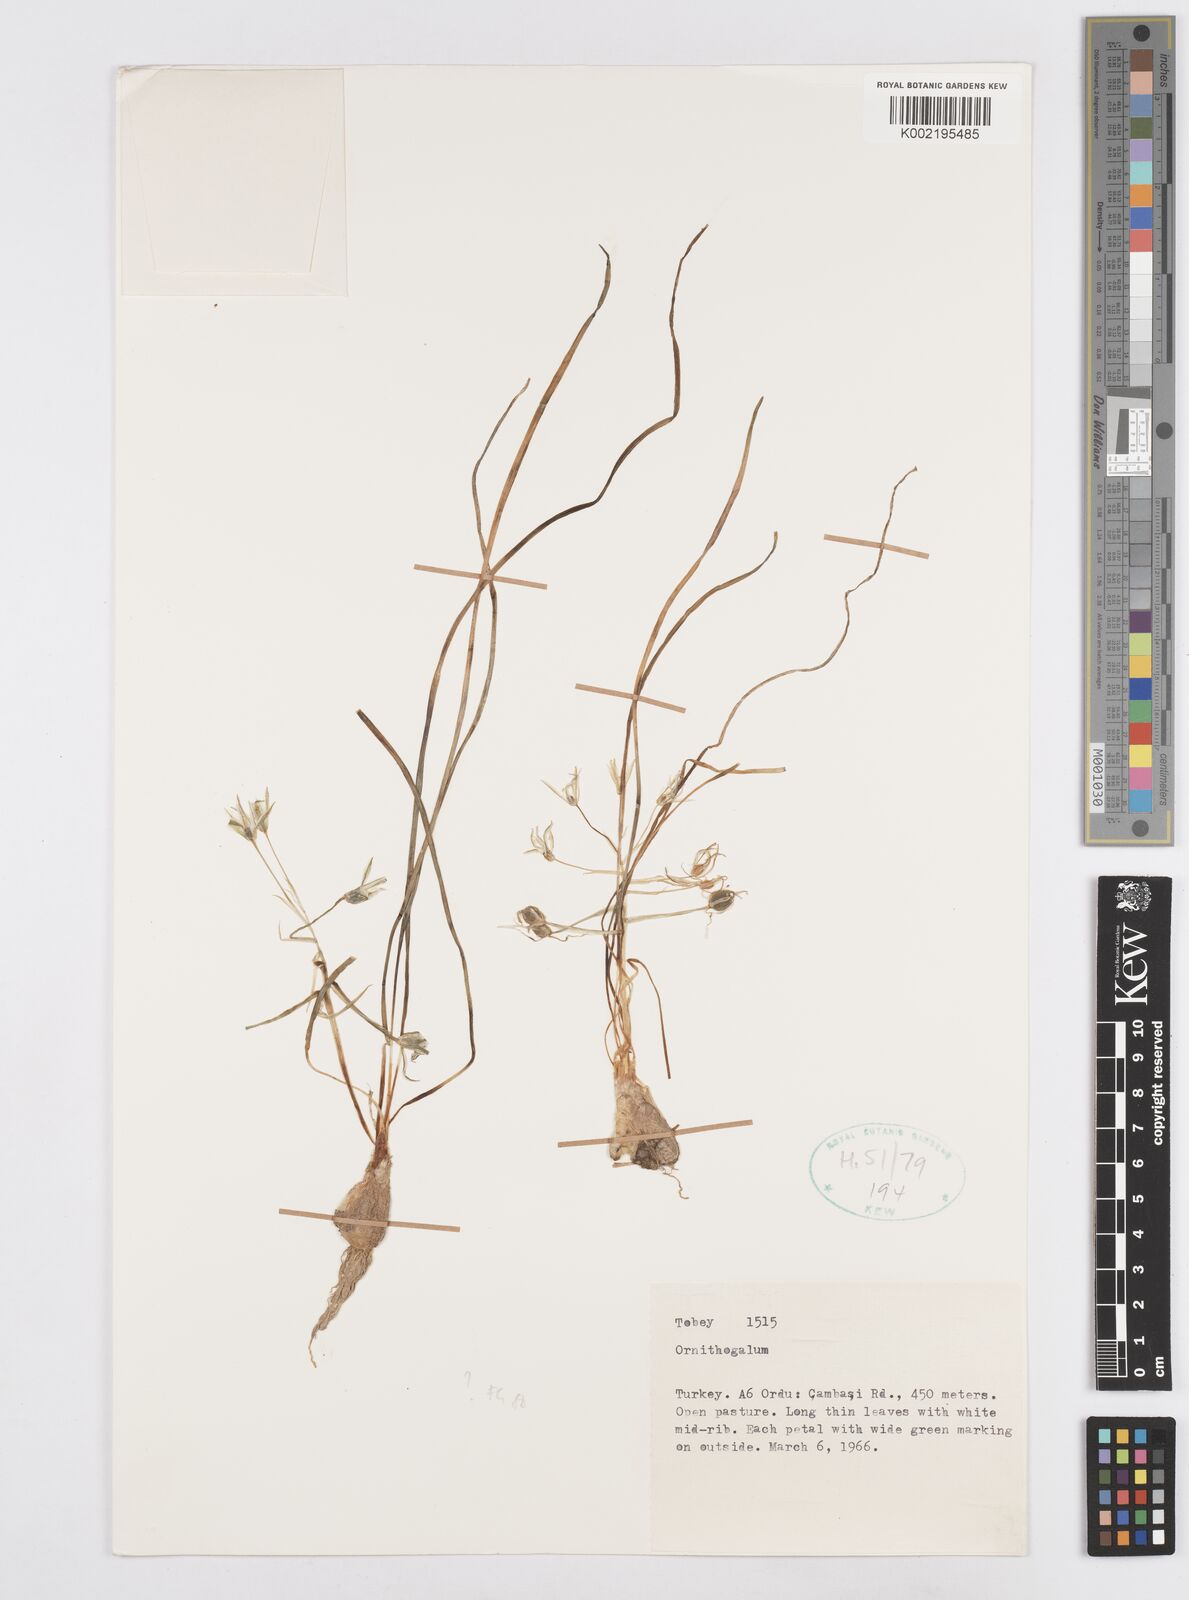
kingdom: Plantae
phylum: Tracheophyta
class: Liliopsida
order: Asparagales
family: Asparagaceae
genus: Ornithogalum
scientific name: Ornithogalum
